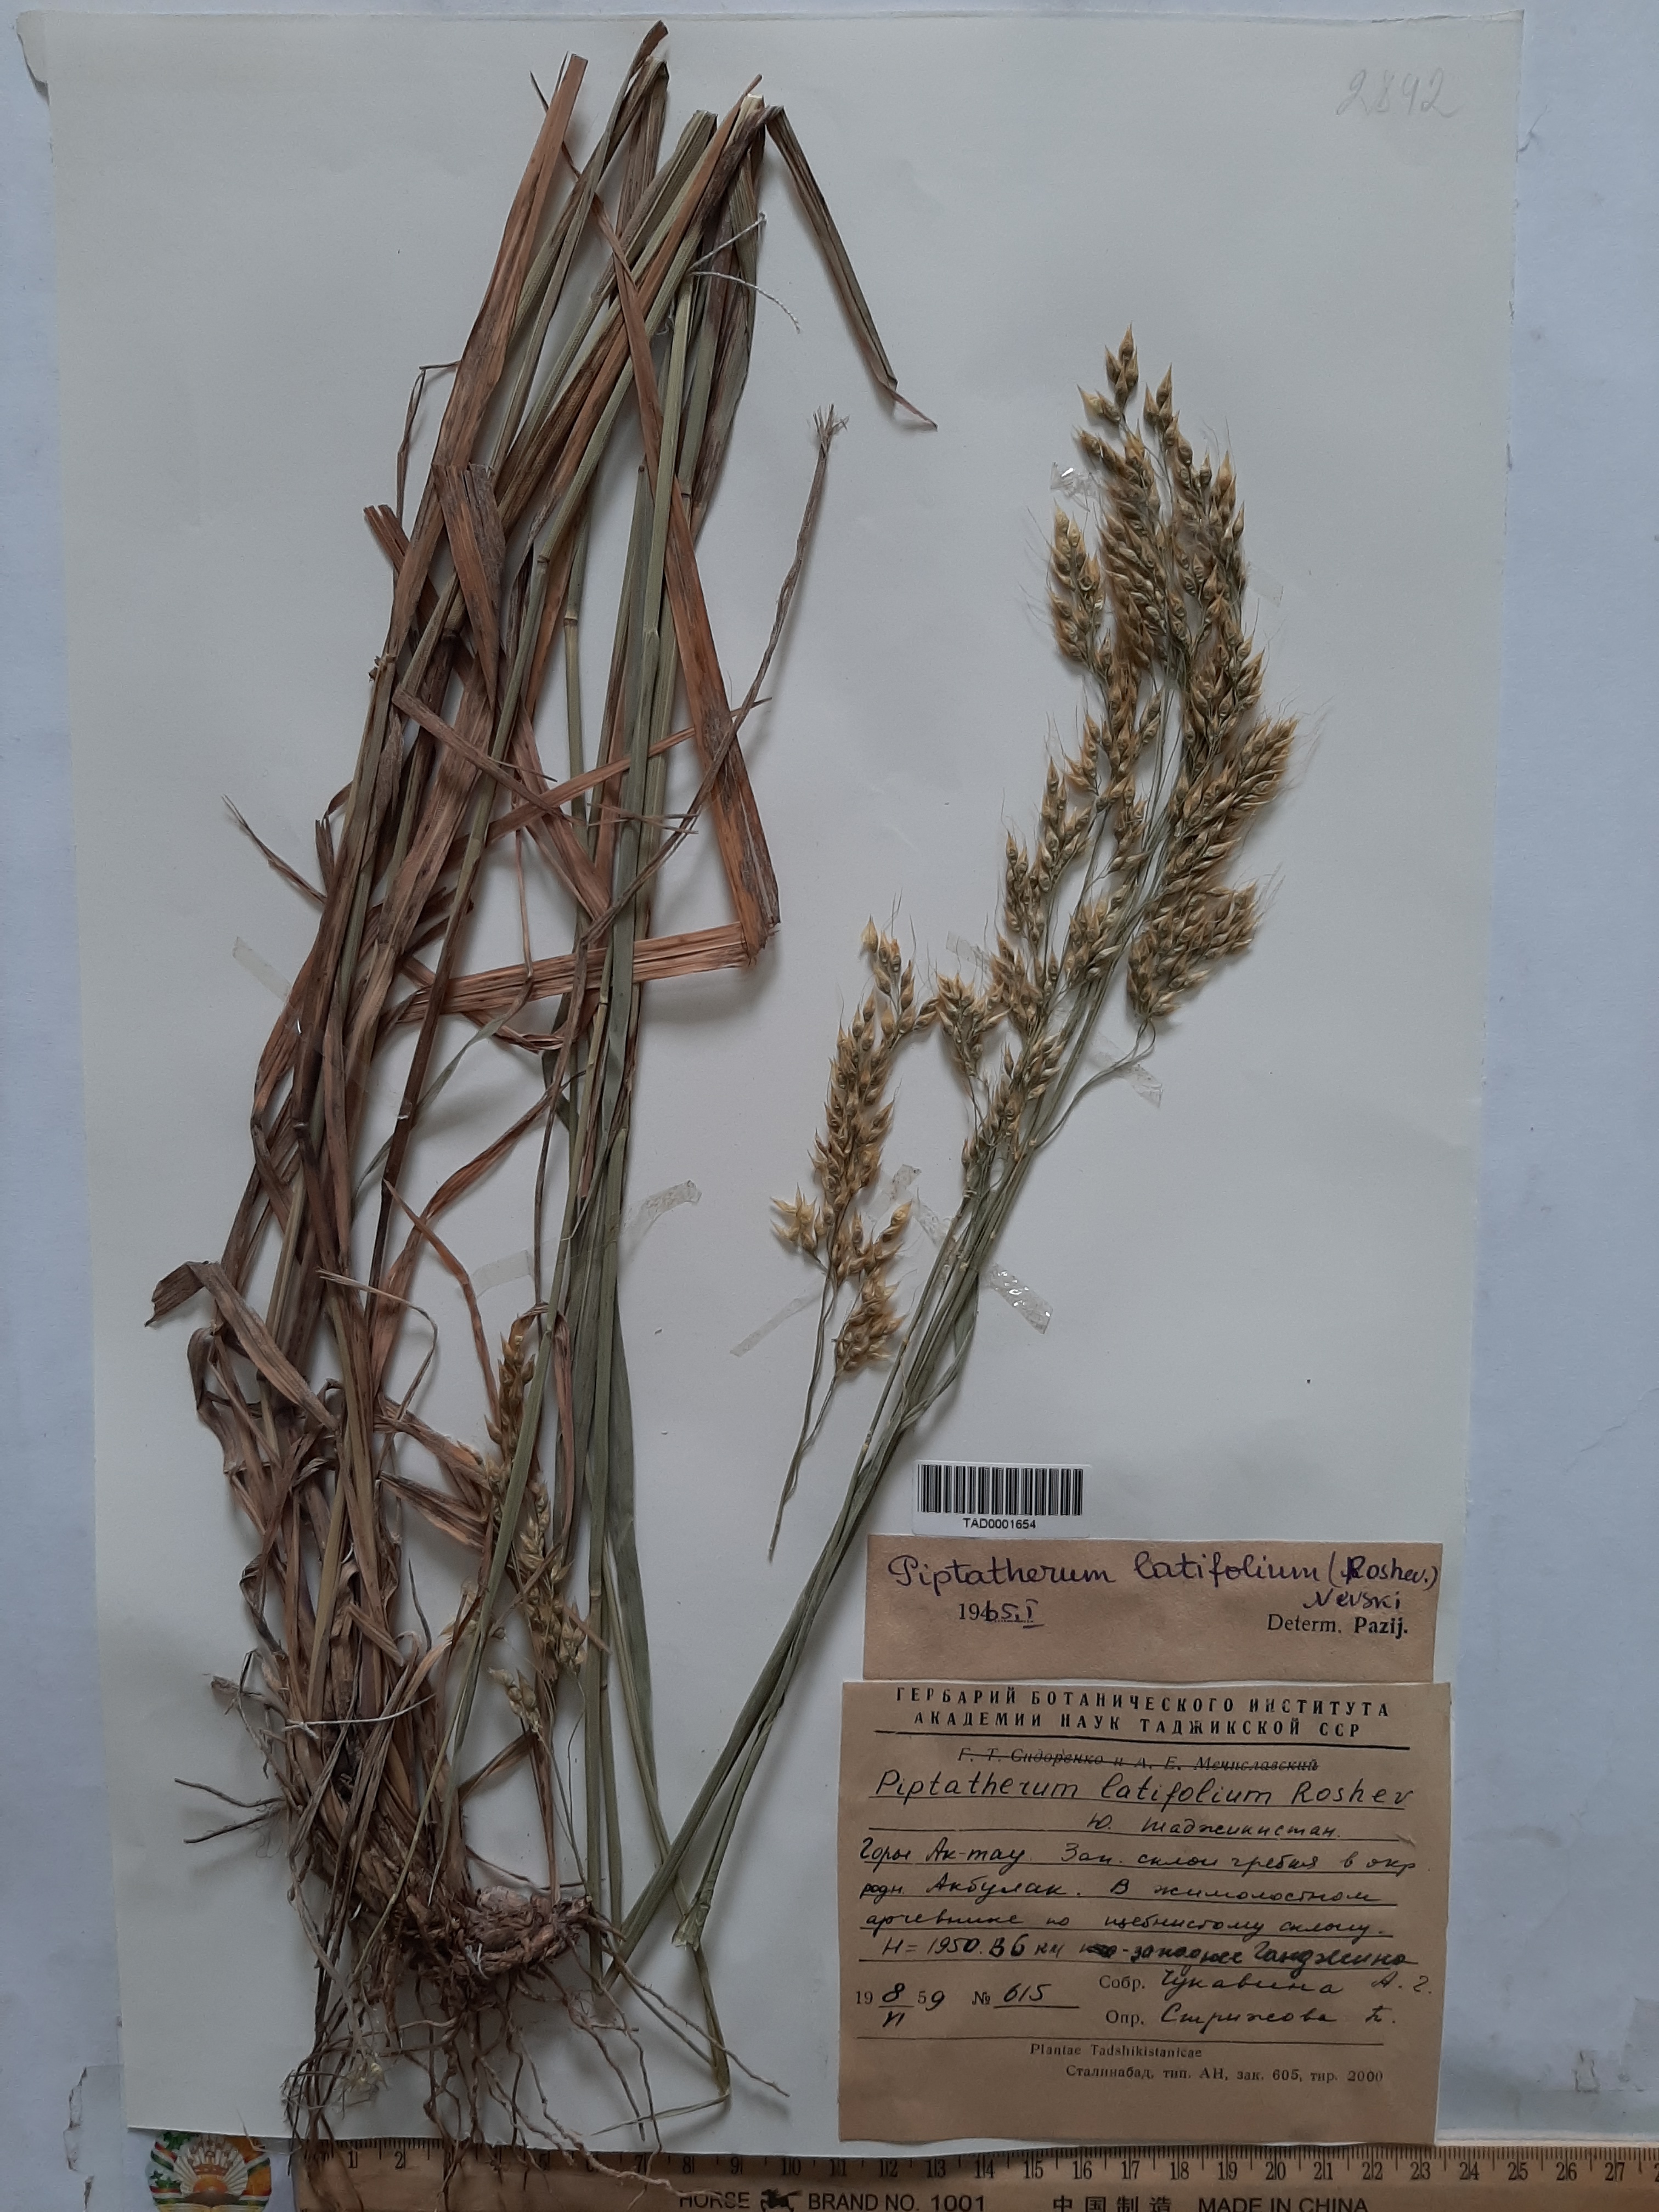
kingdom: Plantae
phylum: Tracheophyta
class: Liliopsida
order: Poales
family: Poaceae
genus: Piptatherum
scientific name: Piptatherum latifolium
